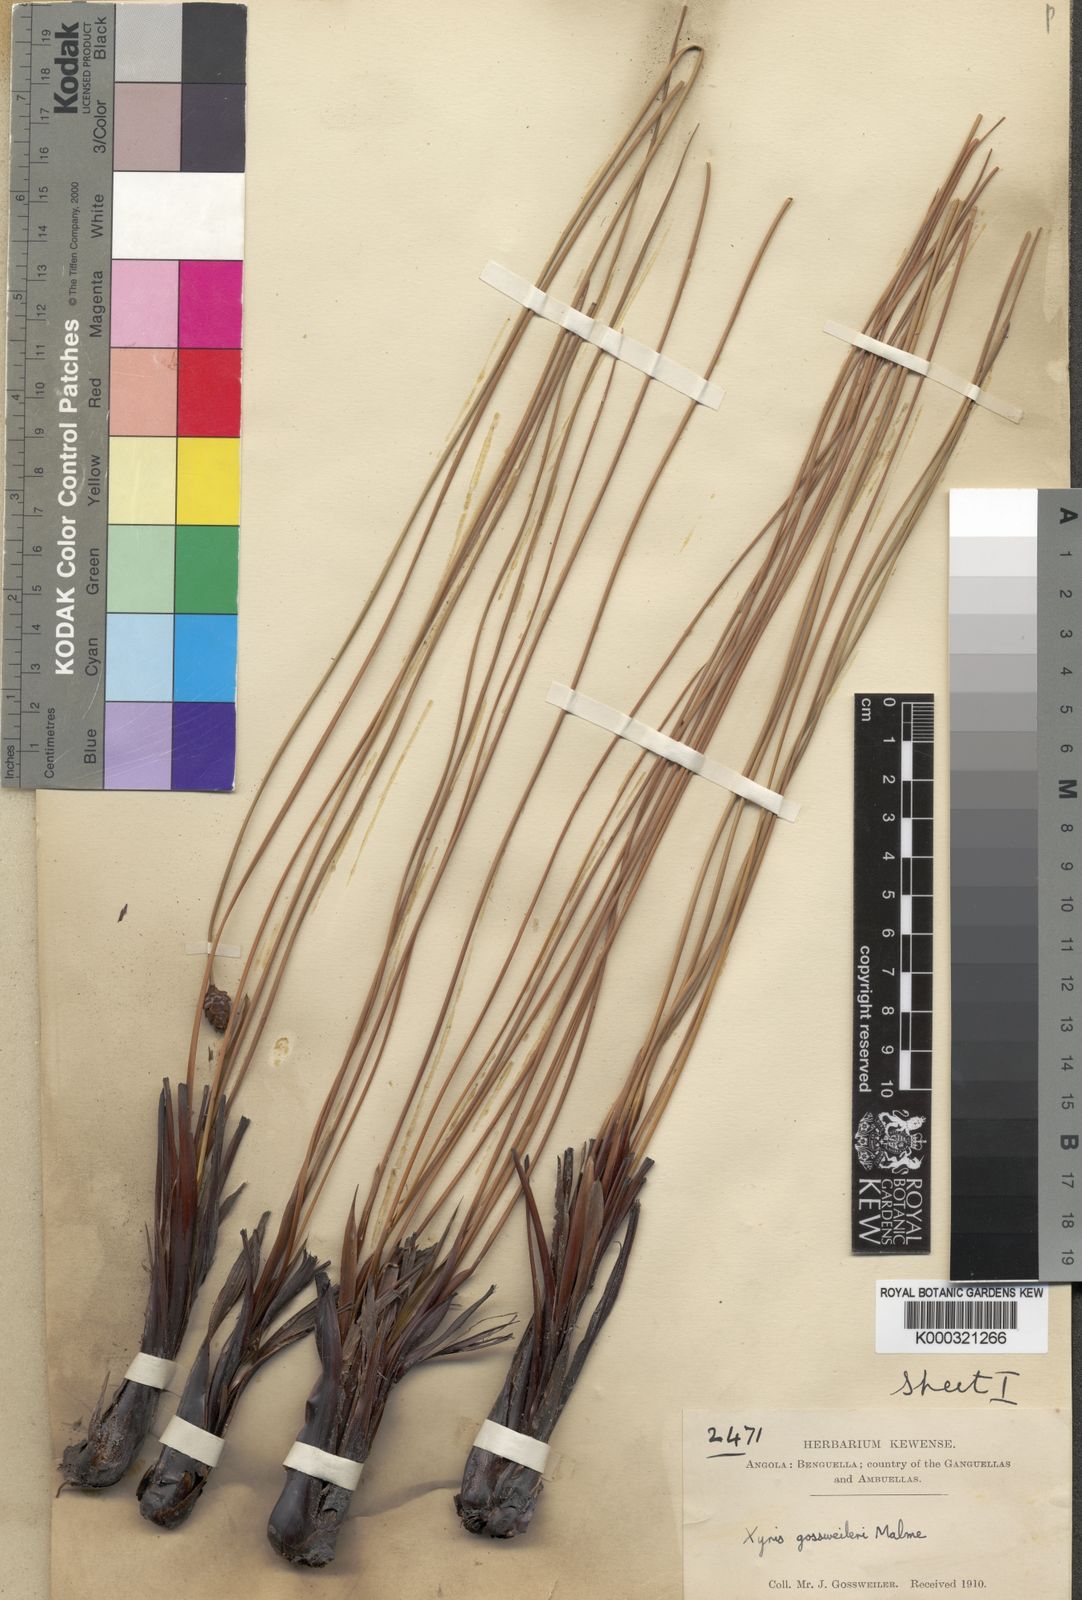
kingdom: Plantae
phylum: Tracheophyta
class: Liliopsida
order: Poales
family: Xyridaceae
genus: Xyris
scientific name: Xyris gossweileri
